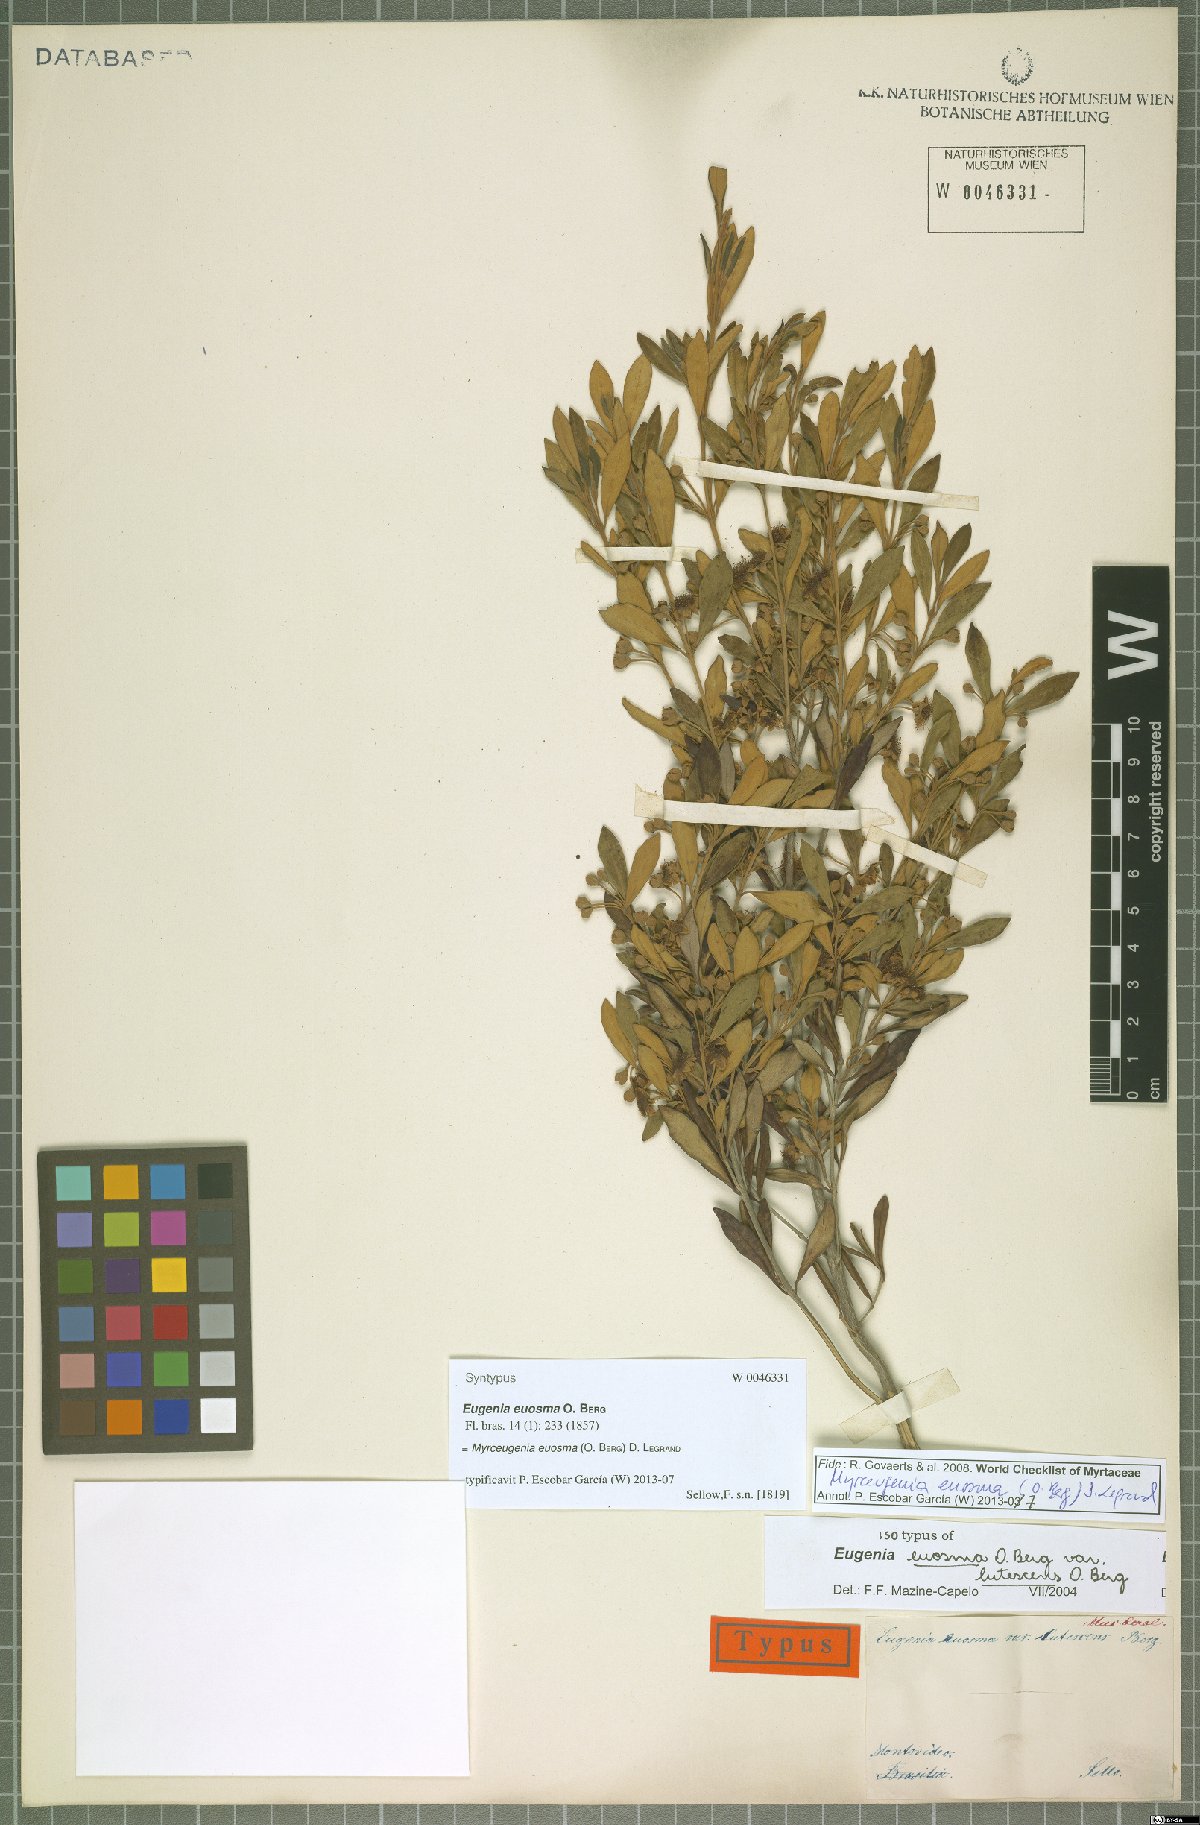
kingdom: Plantae
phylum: Tracheophyta
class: Magnoliopsida
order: Myrtales
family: Myrtaceae
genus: Myrceugenia
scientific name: Myrceugenia euosma
